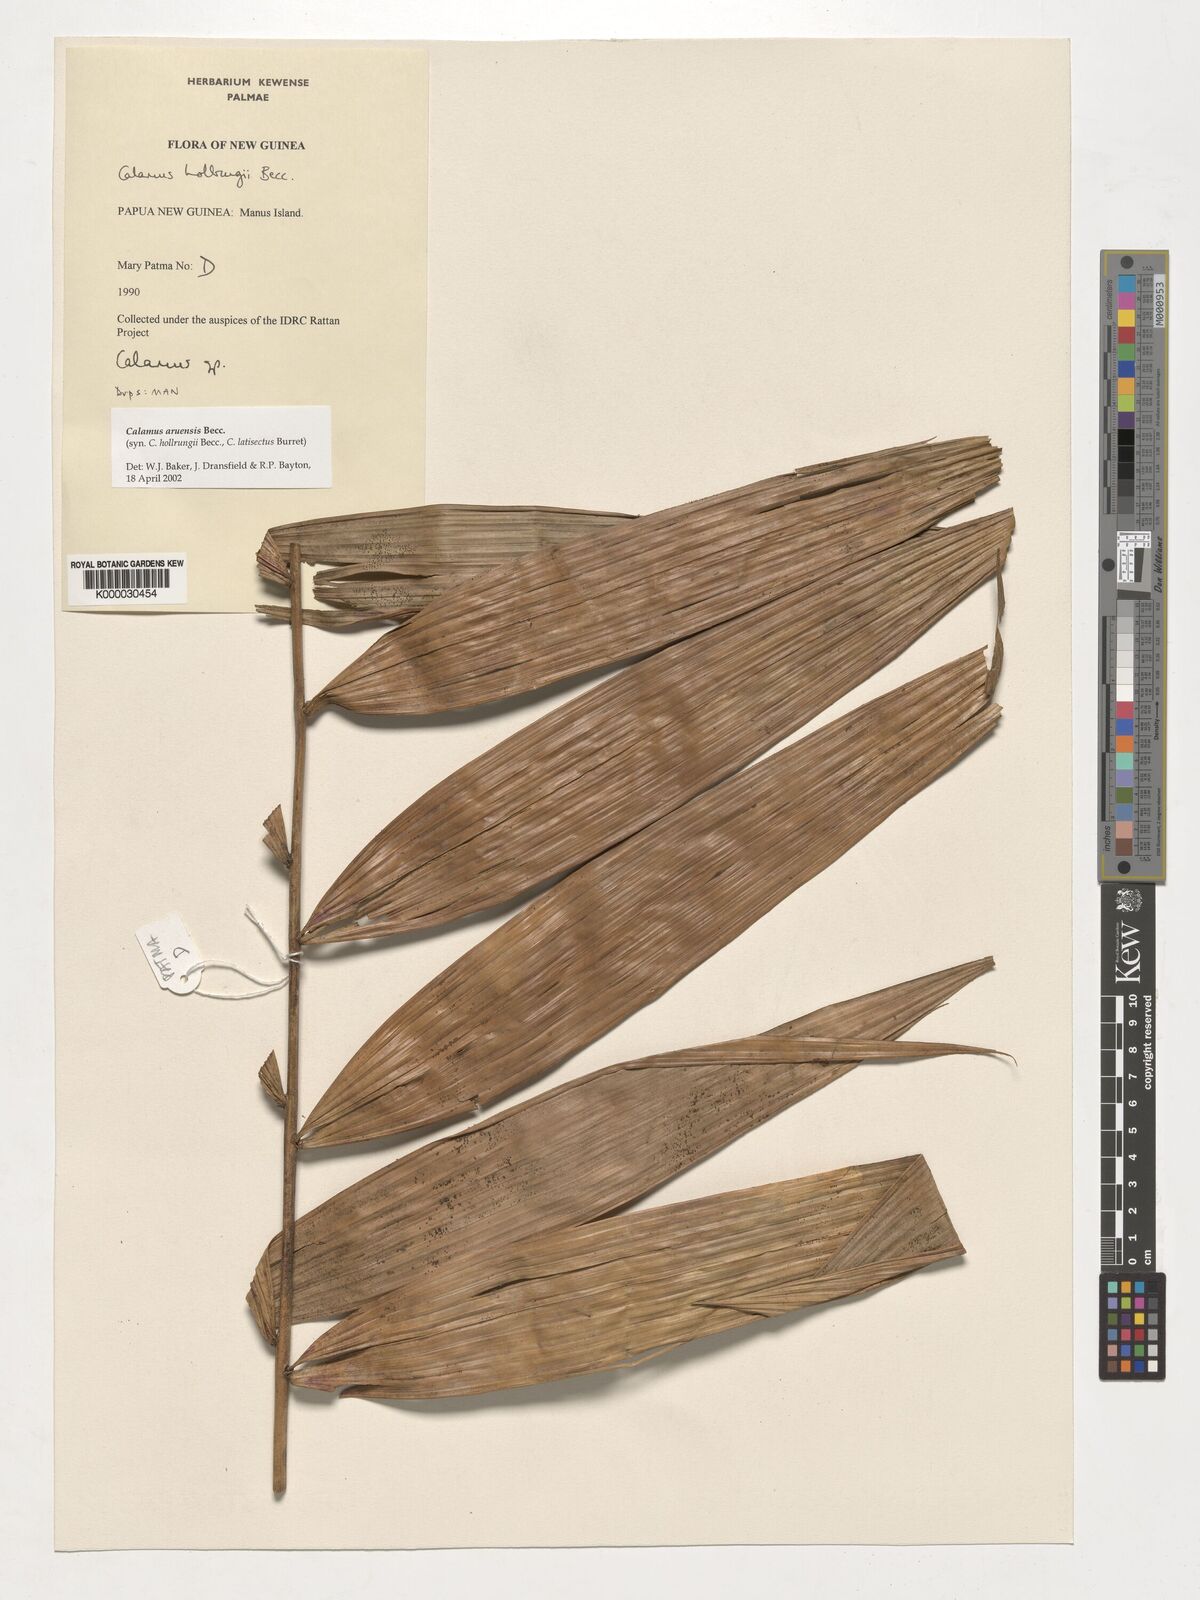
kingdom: Plantae
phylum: Tracheophyta
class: Liliopsida
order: Arecales
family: Arecaceae
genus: Calamus
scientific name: Calamus aruensis
